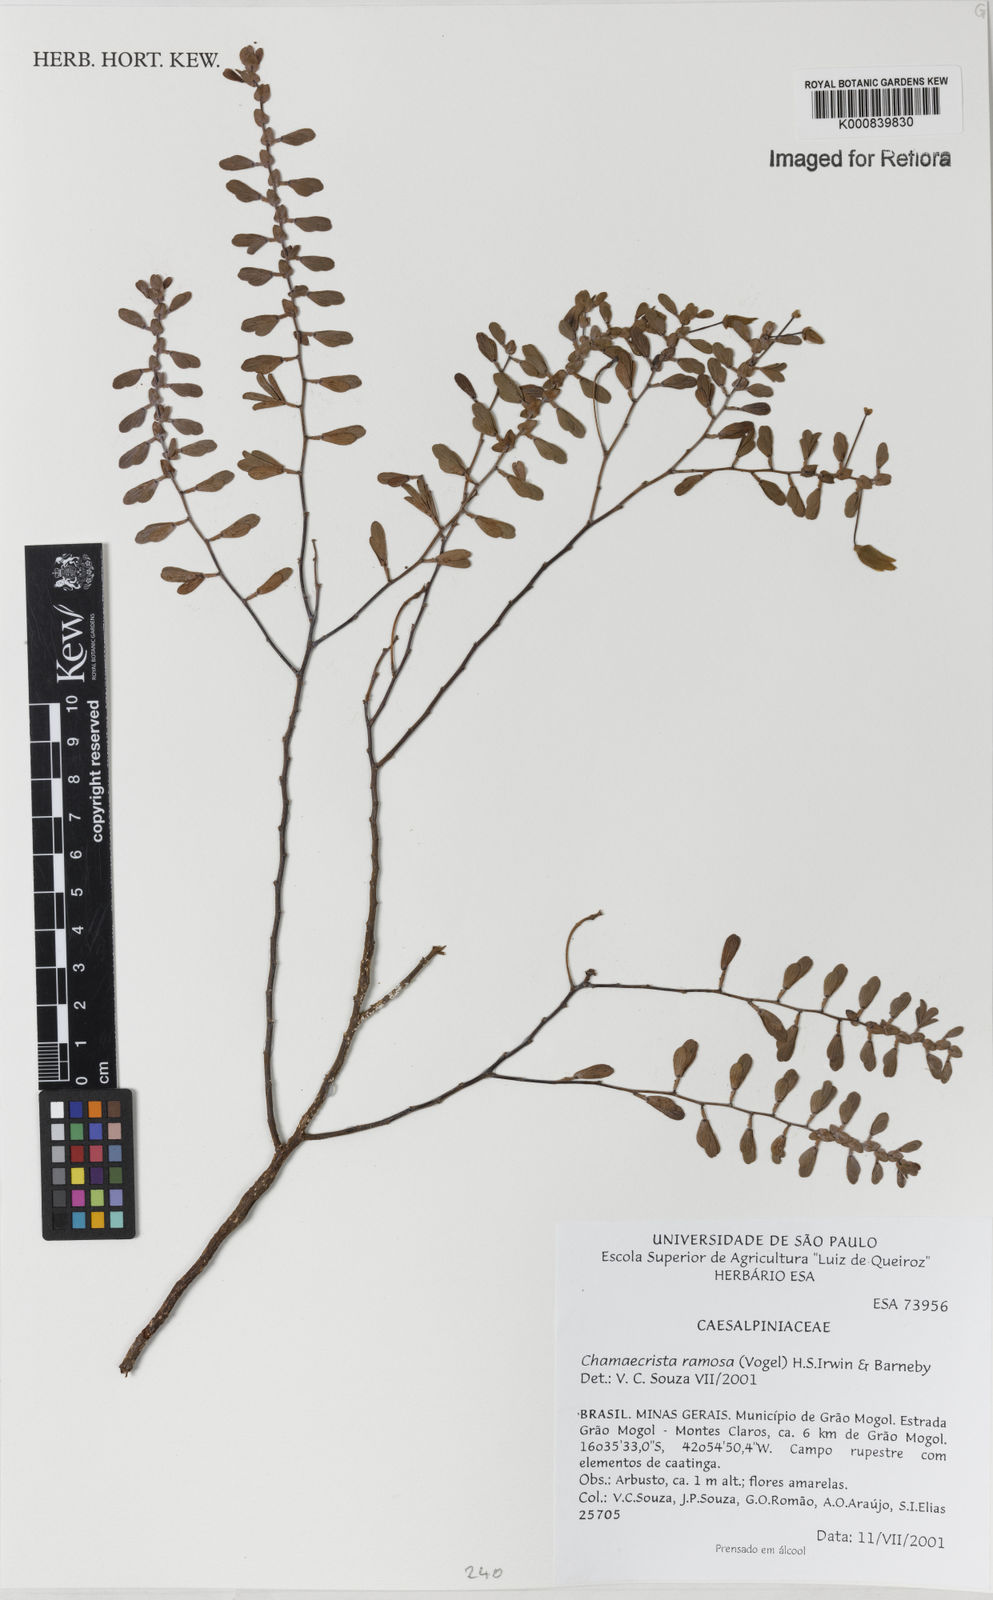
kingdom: Plantae
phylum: Tracheophyta
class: Magnoliopsida
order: Fabales
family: Fabaceae
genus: Chamaecrista
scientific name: Chamaecrista ramosa
